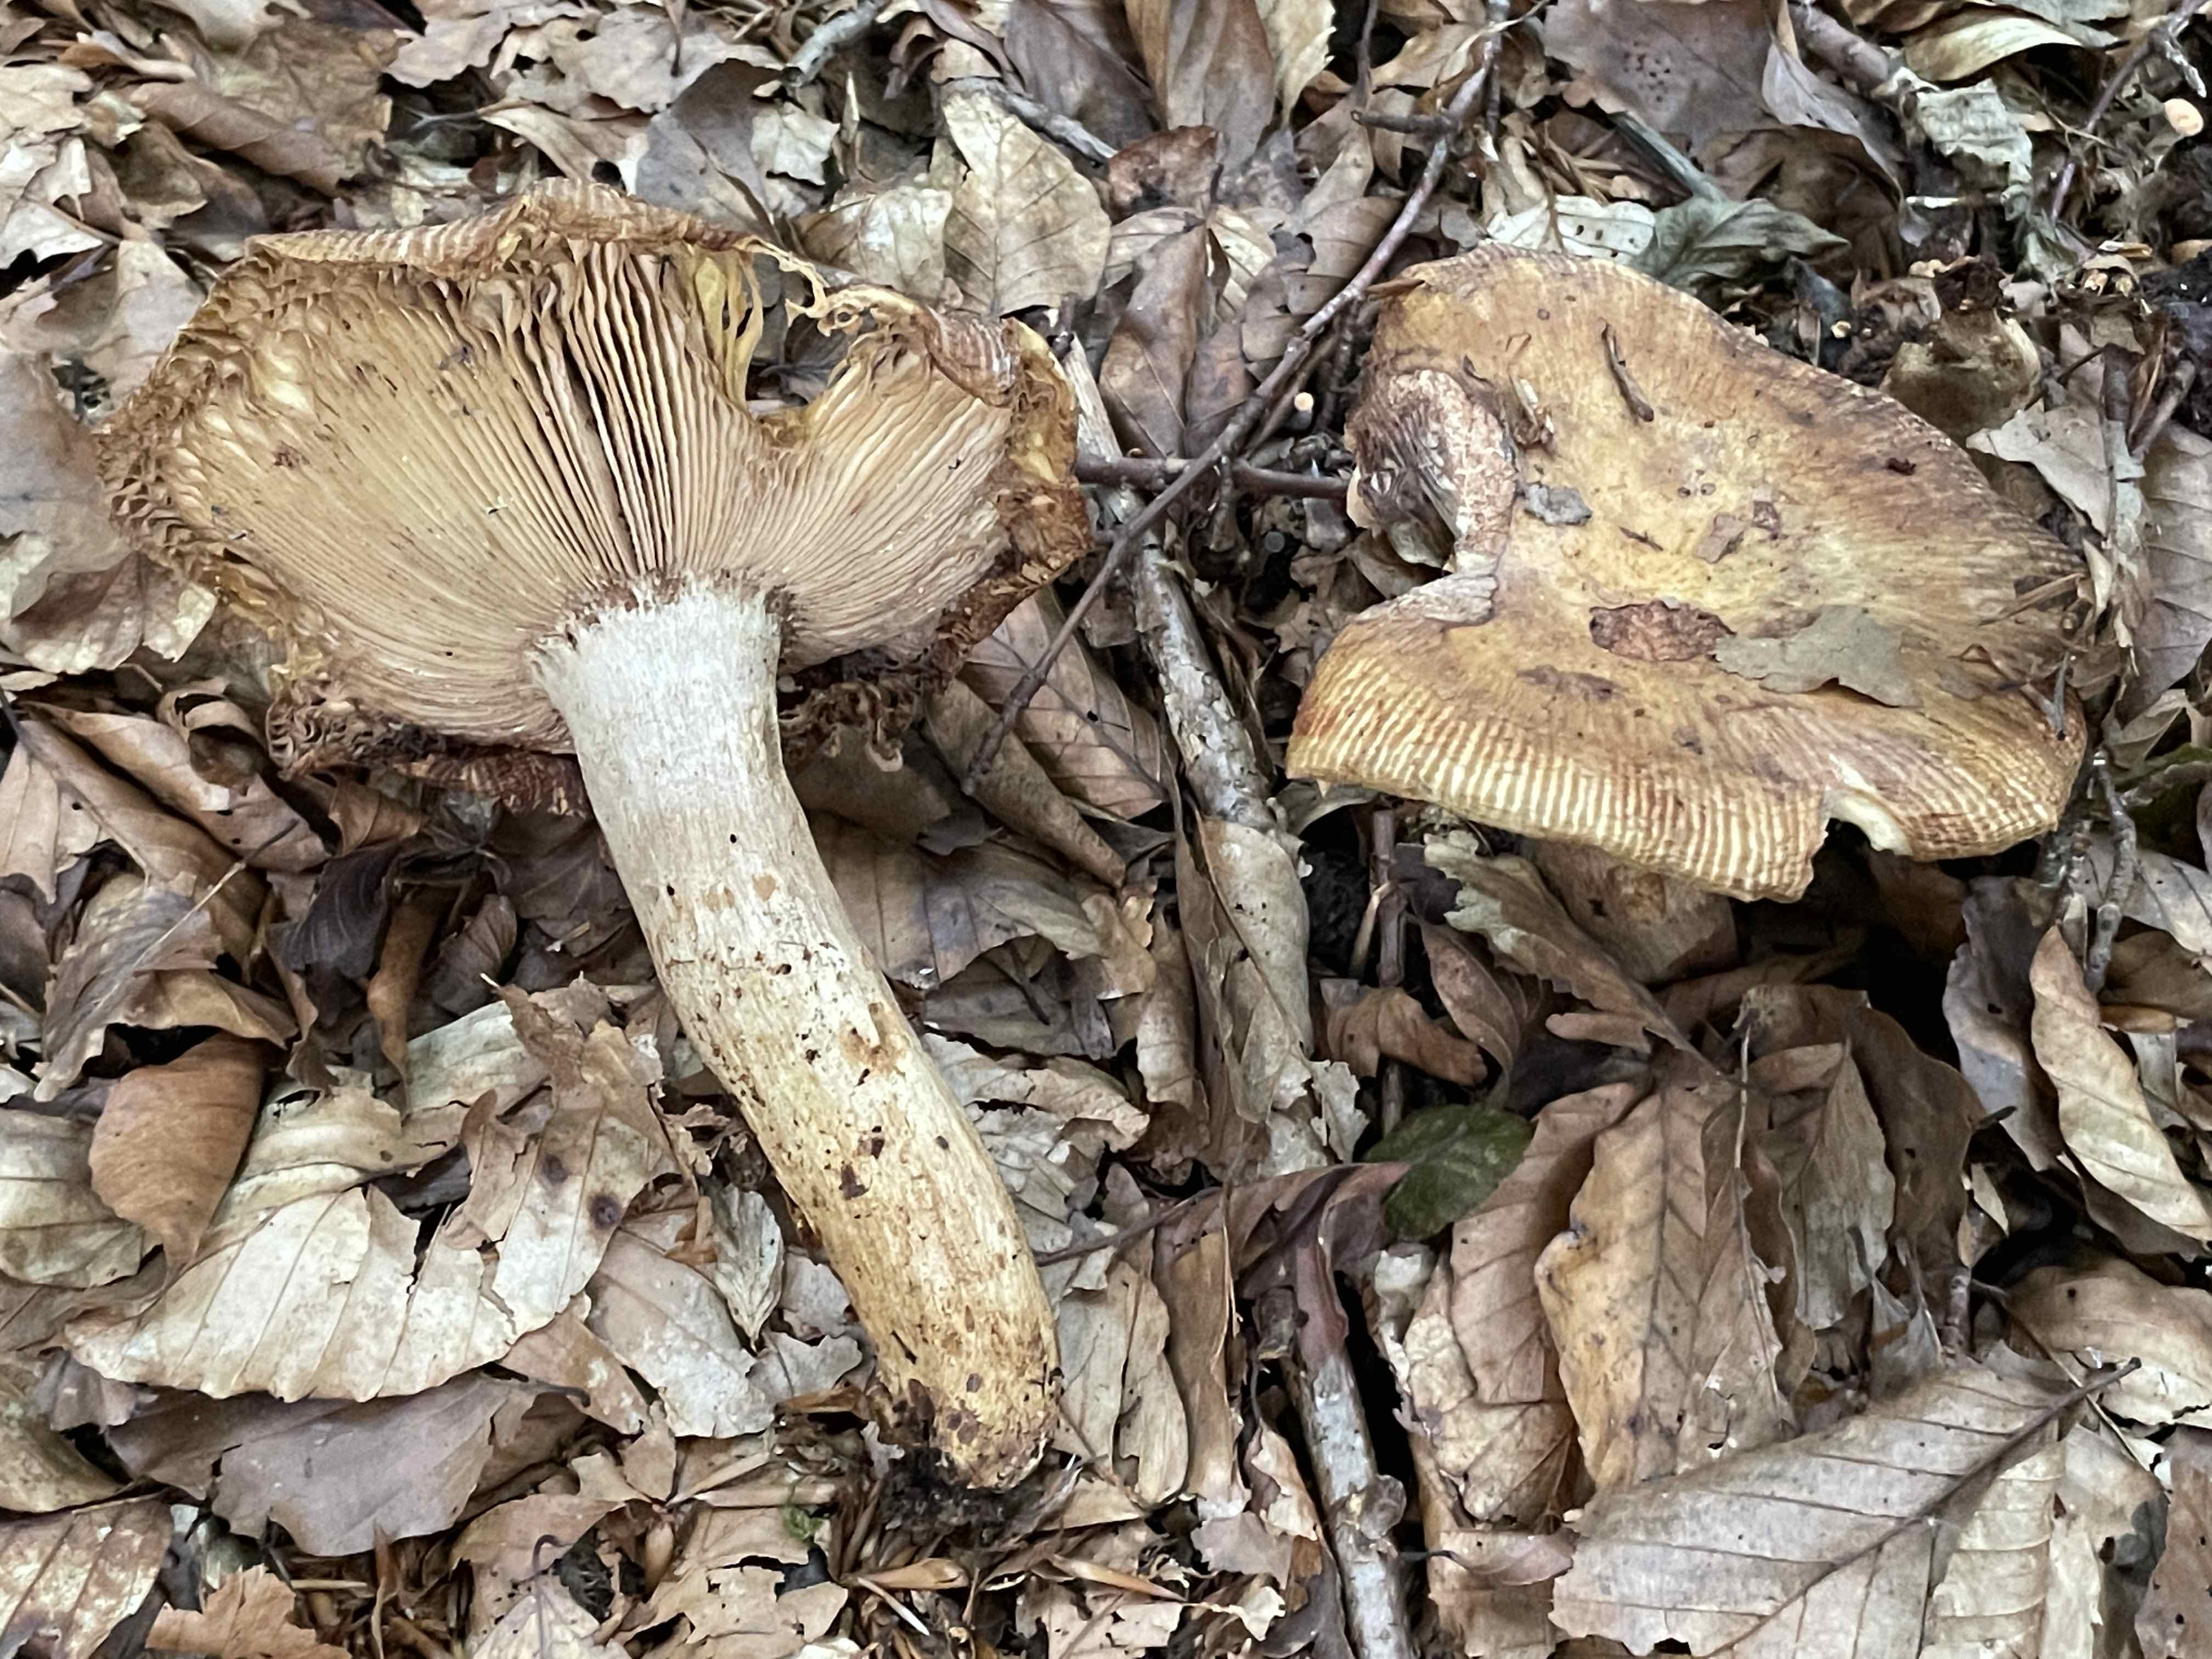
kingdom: Fungi
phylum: Basidiomycota
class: Agaricomycetes
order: Russulales
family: Russulaceae
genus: Russula
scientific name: Russula foetens
